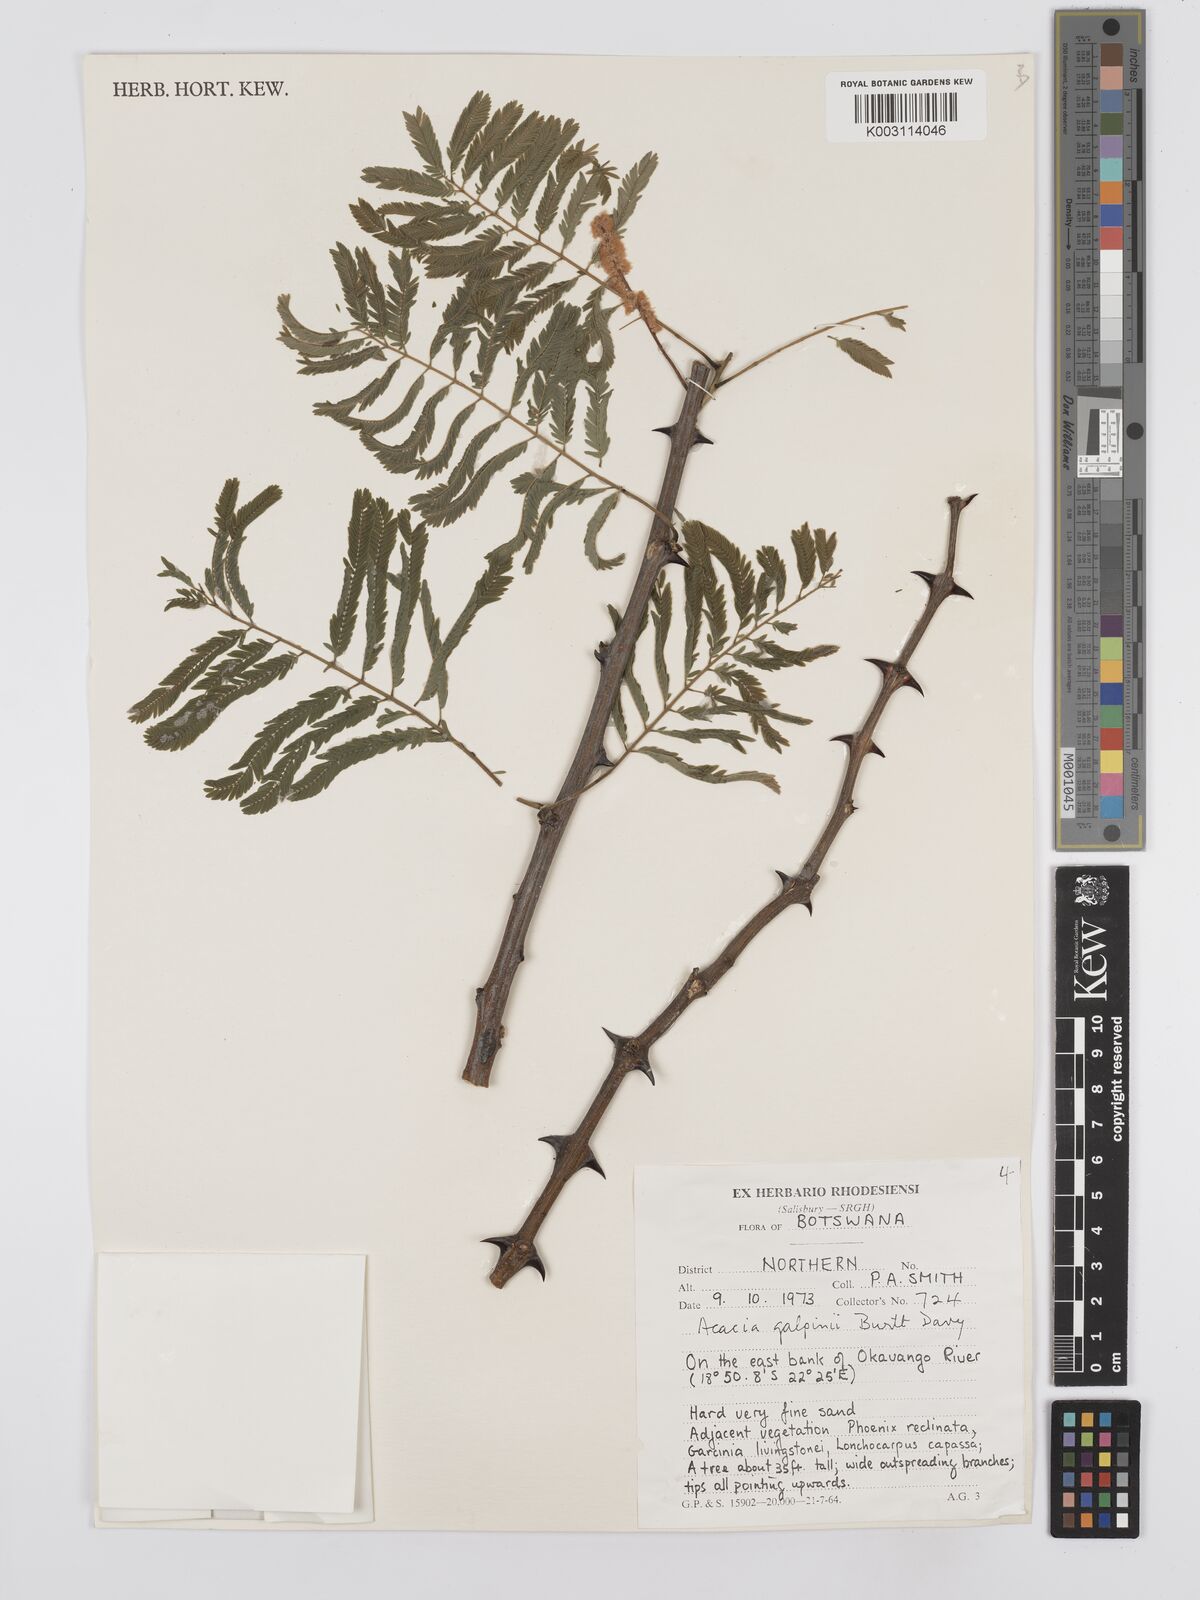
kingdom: Plantae
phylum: Tracheophyta
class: Magnoliopsida
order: Fabales
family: Fabaceae
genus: Senegalia
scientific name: Senegalia galpinii
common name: Monkey-thorn
